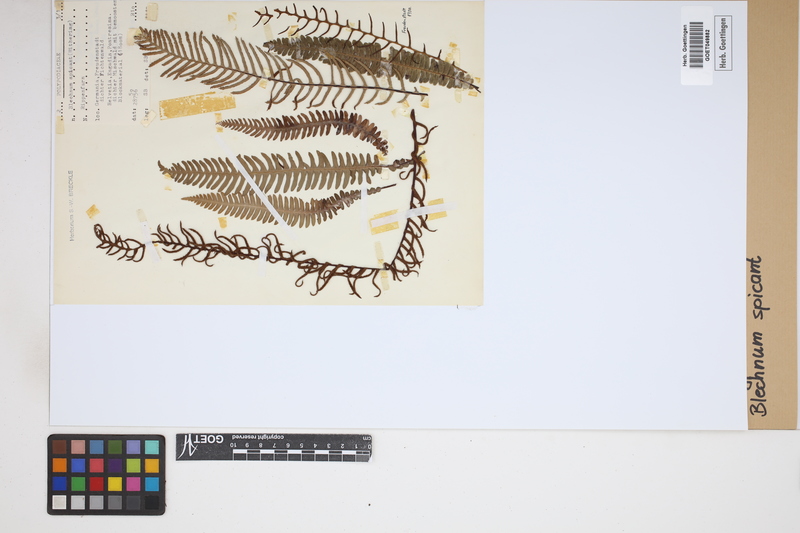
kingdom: Plantae
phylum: Tracheophyta
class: Polypodiopsida
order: Polypodiales
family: Blechnaceae
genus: Struthiopteris
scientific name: Struthiopteris spicant
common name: Deer fern
